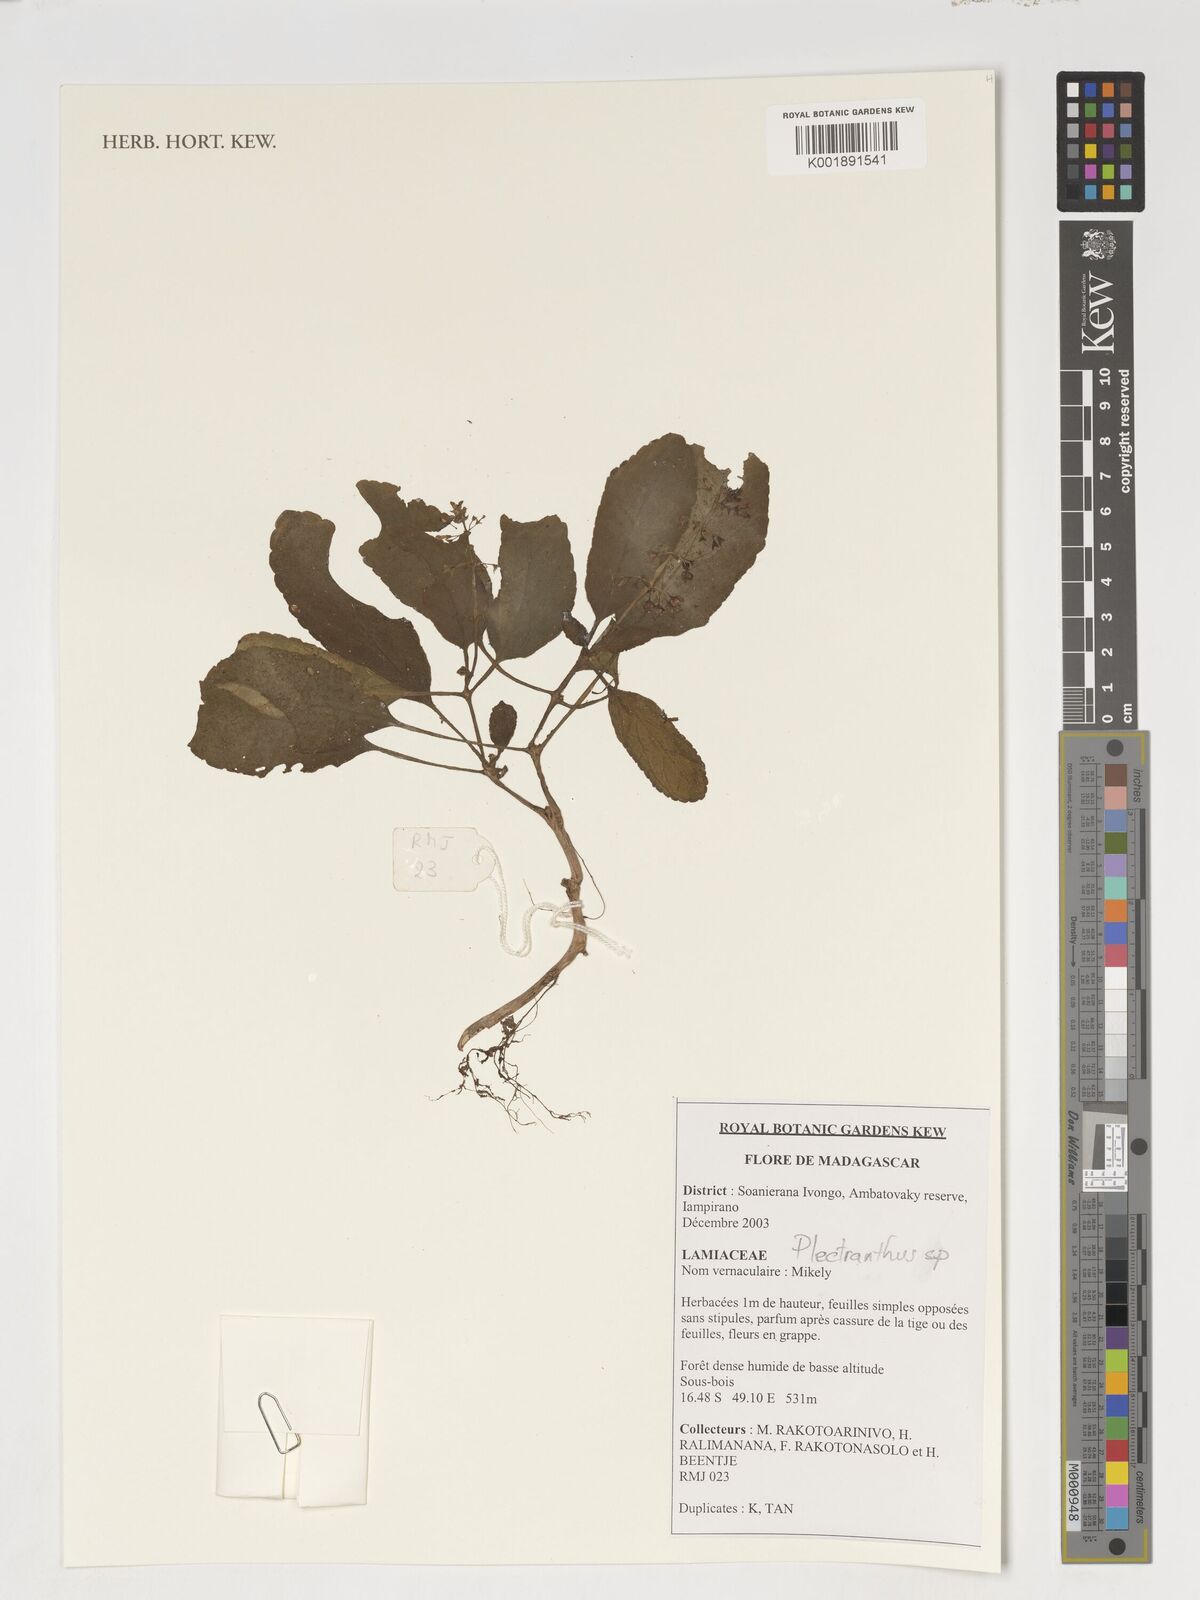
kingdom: Plantae
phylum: Tracheophyta
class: Magnoliopsida
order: Lamiales
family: Lamiaceae
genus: Plectranthus
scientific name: Plectranthus
